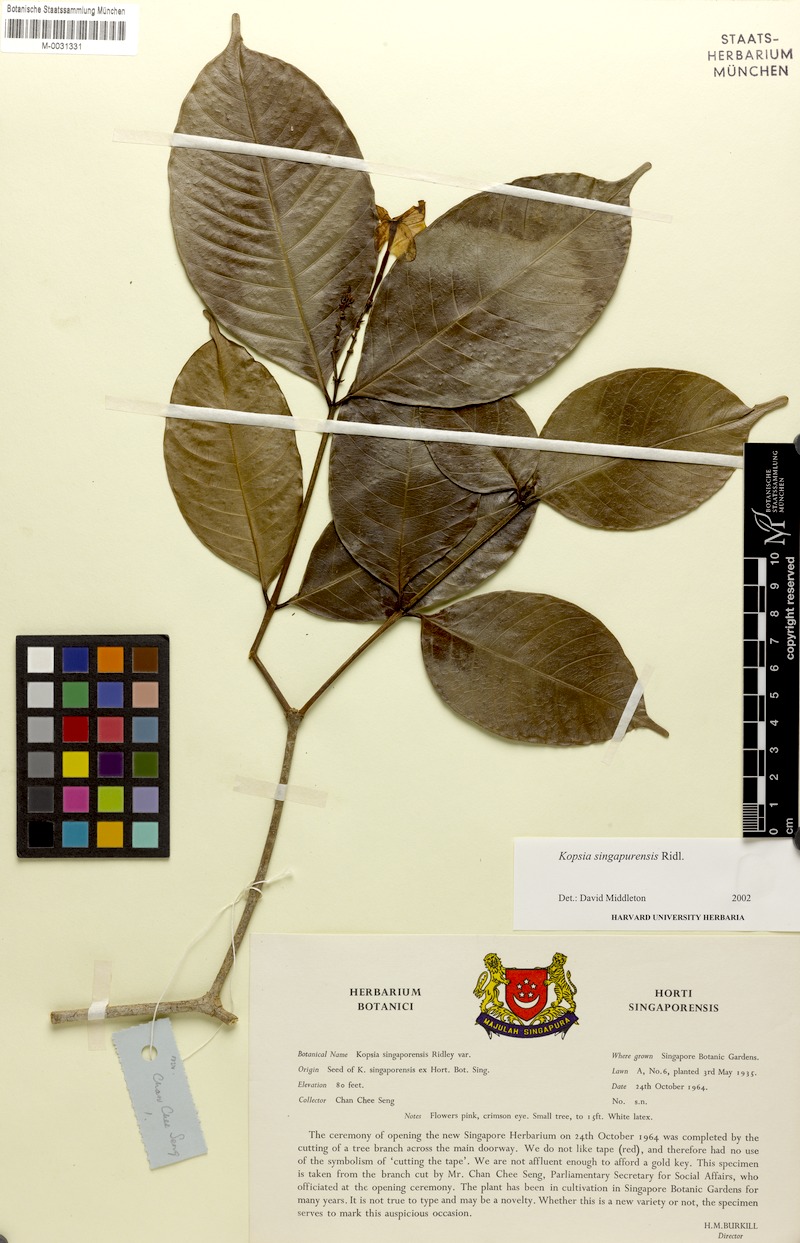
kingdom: Plantae
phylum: Tracheophyta
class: Magnoliopsida
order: Gentianales
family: Apocynaceae
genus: Kopsia
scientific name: Kopsia singapurensis
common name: White kopsia
